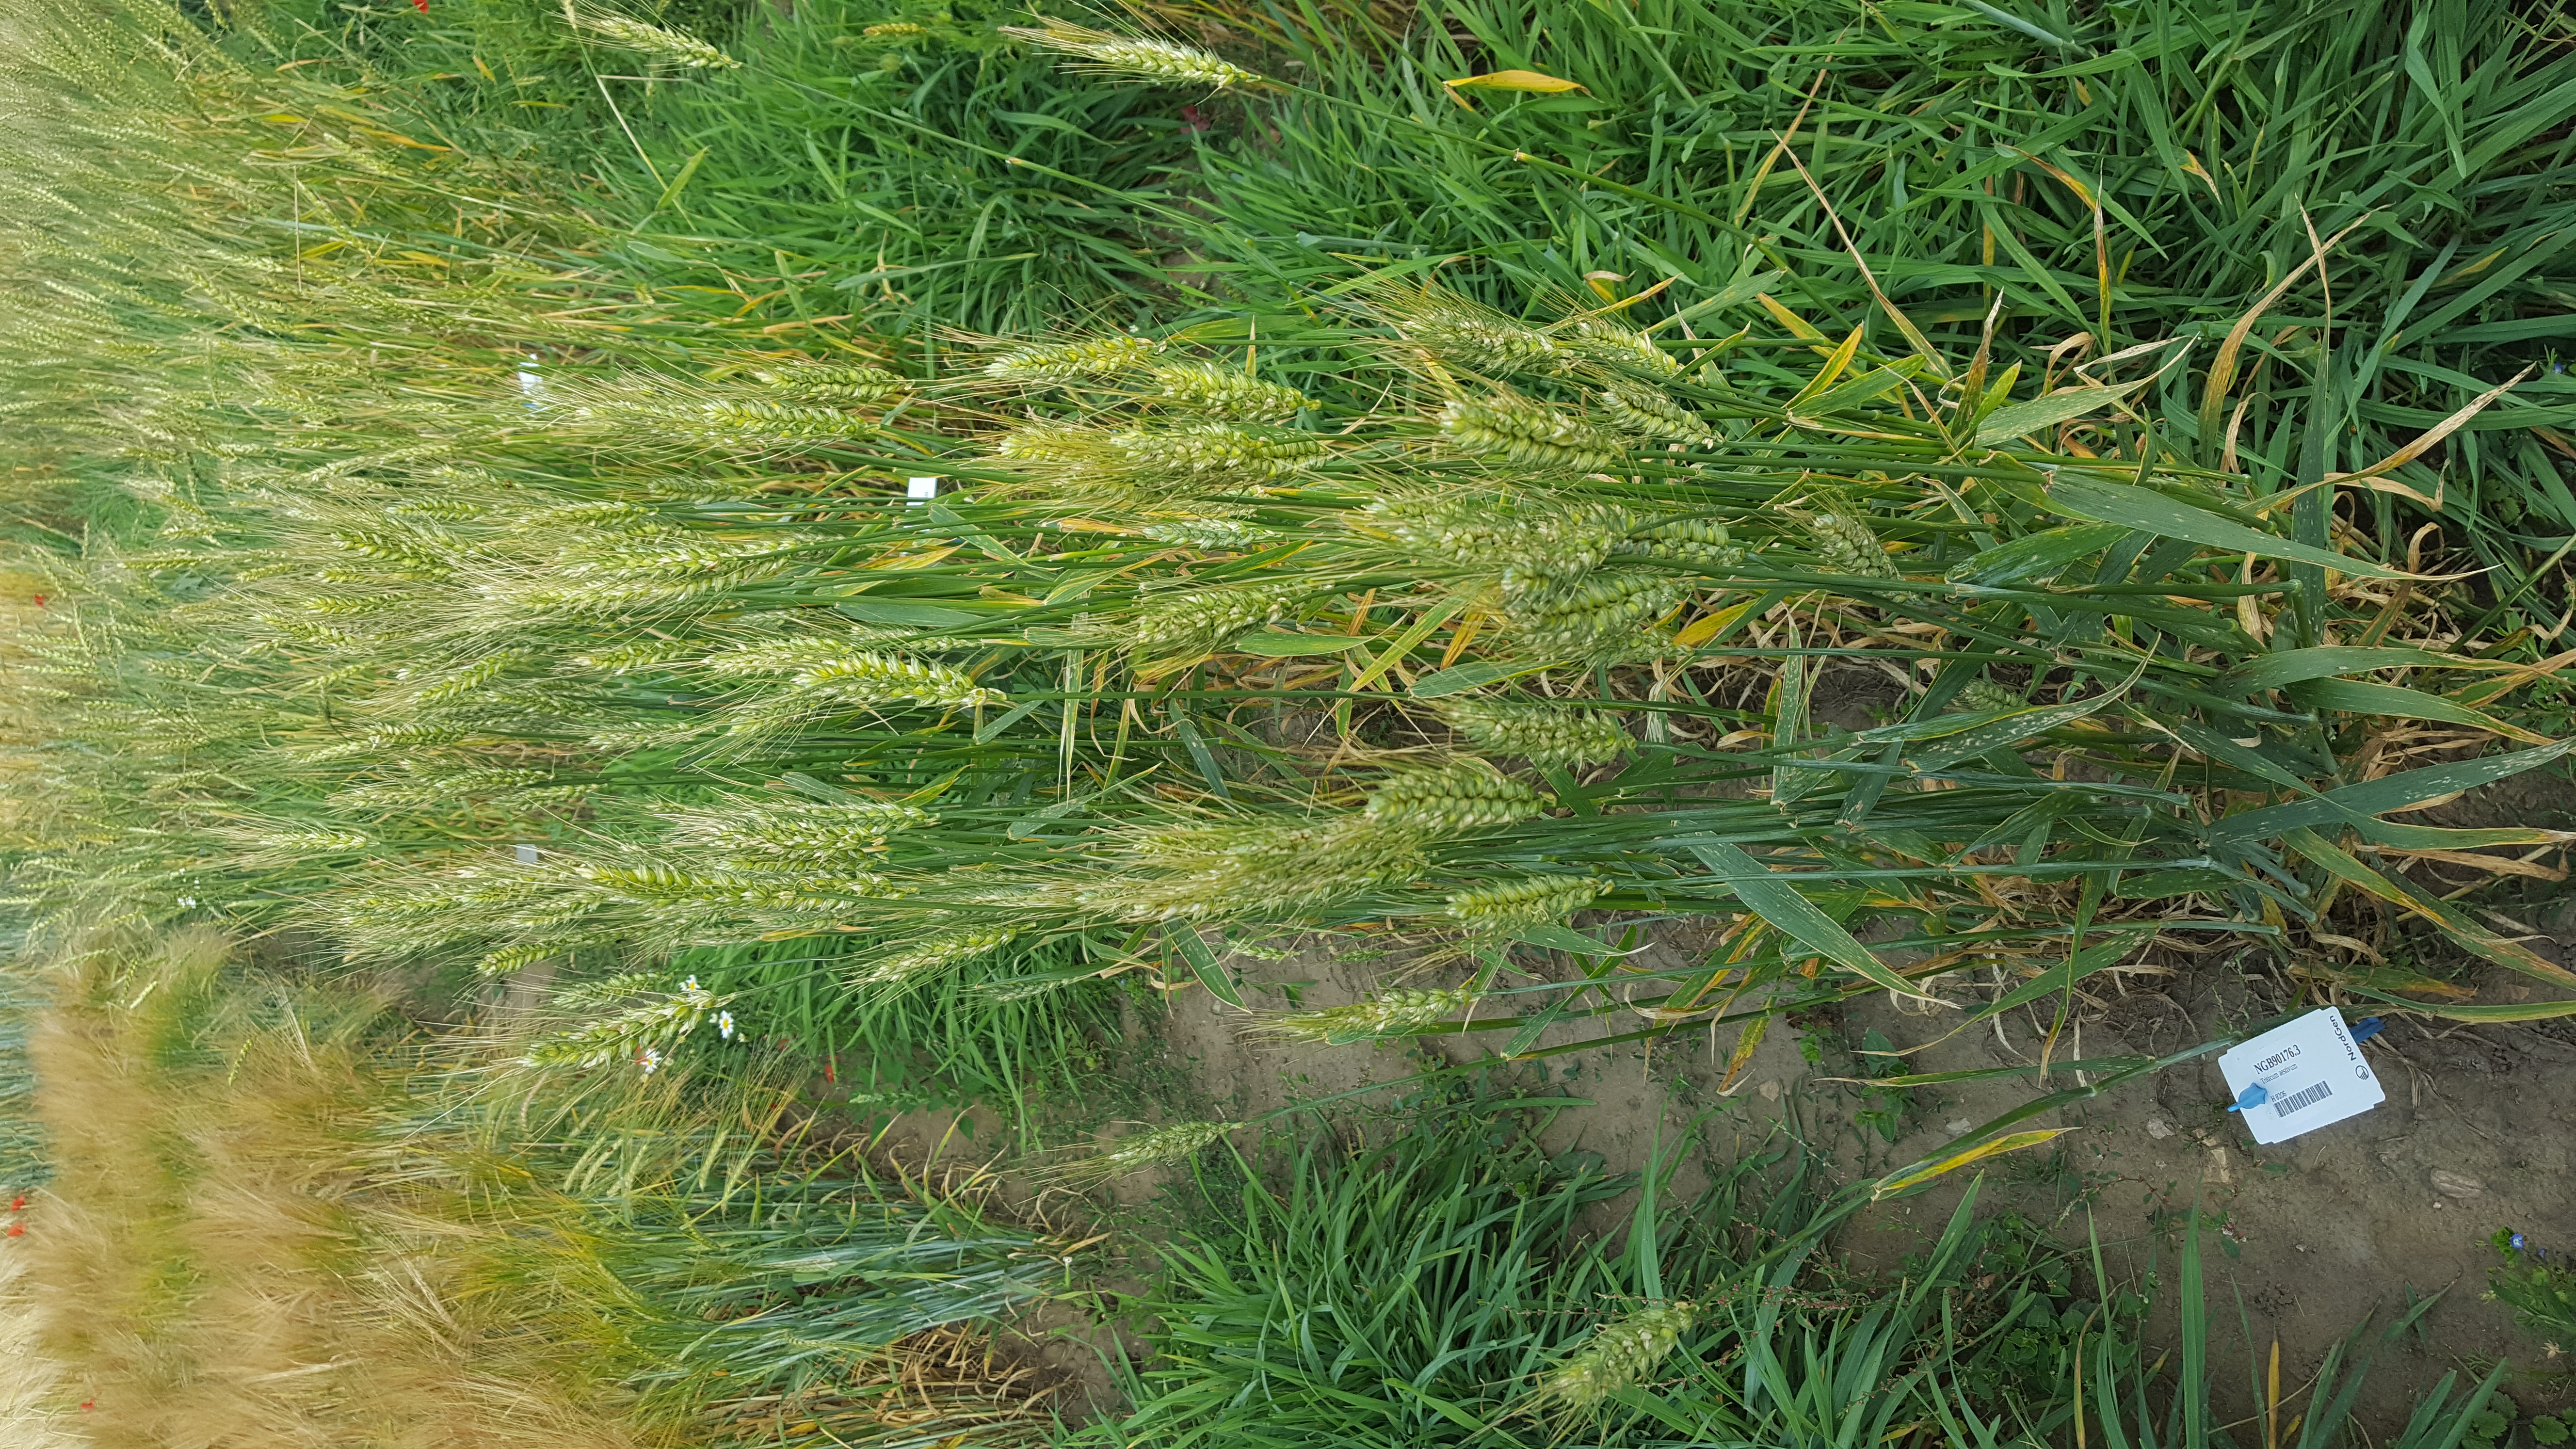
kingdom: Plantae
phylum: Tracheophyta
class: Liliopsida
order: Poales
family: Poaceae
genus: Triticum
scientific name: Triticum aestivum
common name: Common wheat
